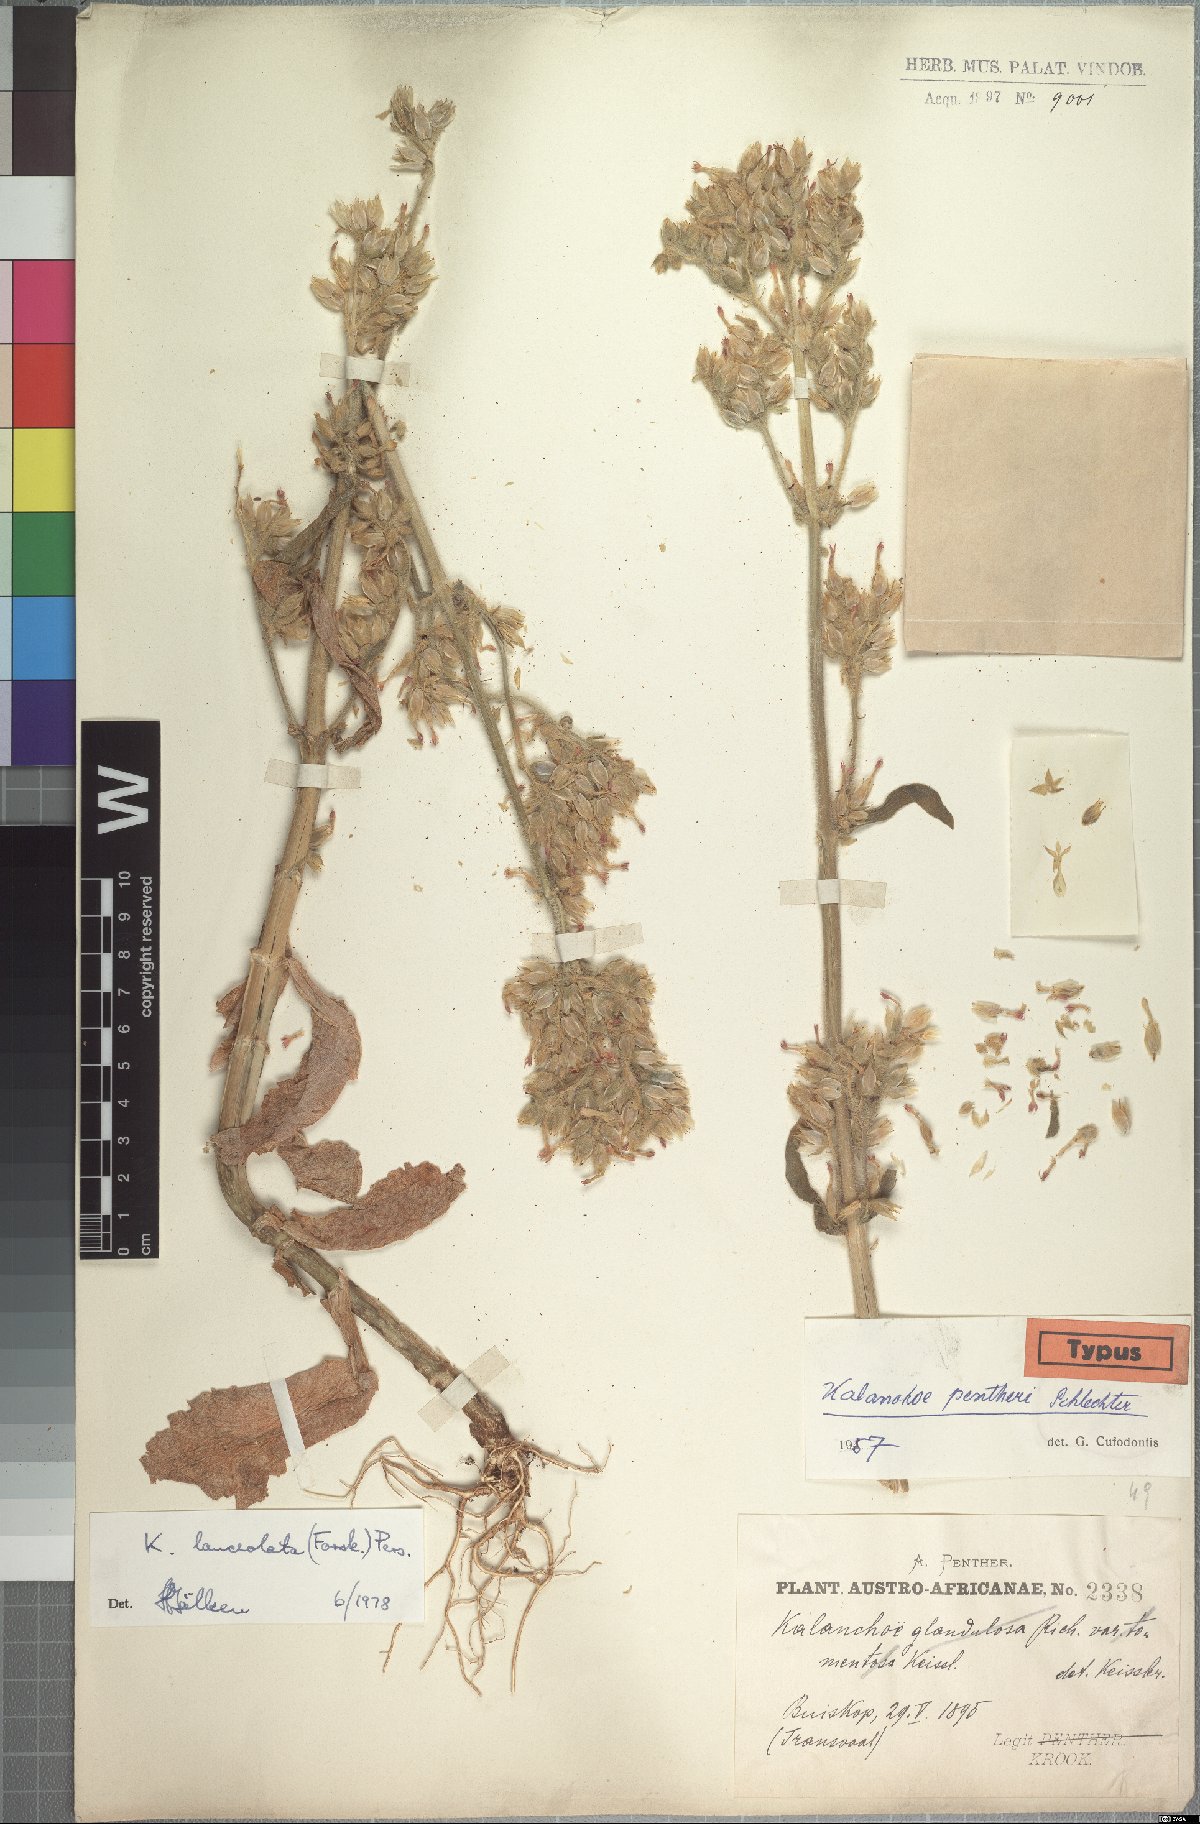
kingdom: Plantae
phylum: Tracheophyta
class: Magnoliopsida
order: Saxifragales
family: Crassulaceae
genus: Kalanchoe
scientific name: Kalanchoe lanceolata
